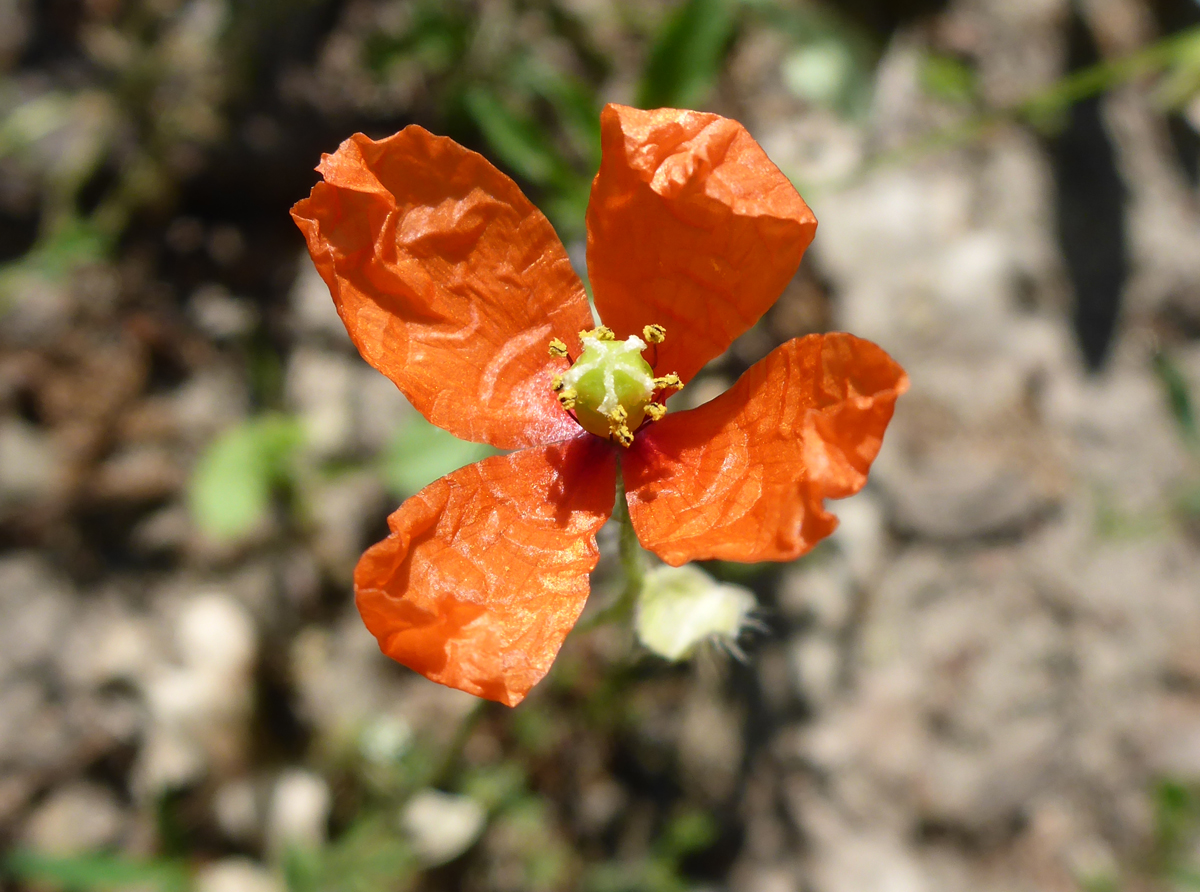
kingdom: Plantae
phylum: Tracheophyta
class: Magnoliopsida
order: Ranunculales
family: Papaveraceae
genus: Papaver
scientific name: Papaver dubium
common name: Long-headed poppy
